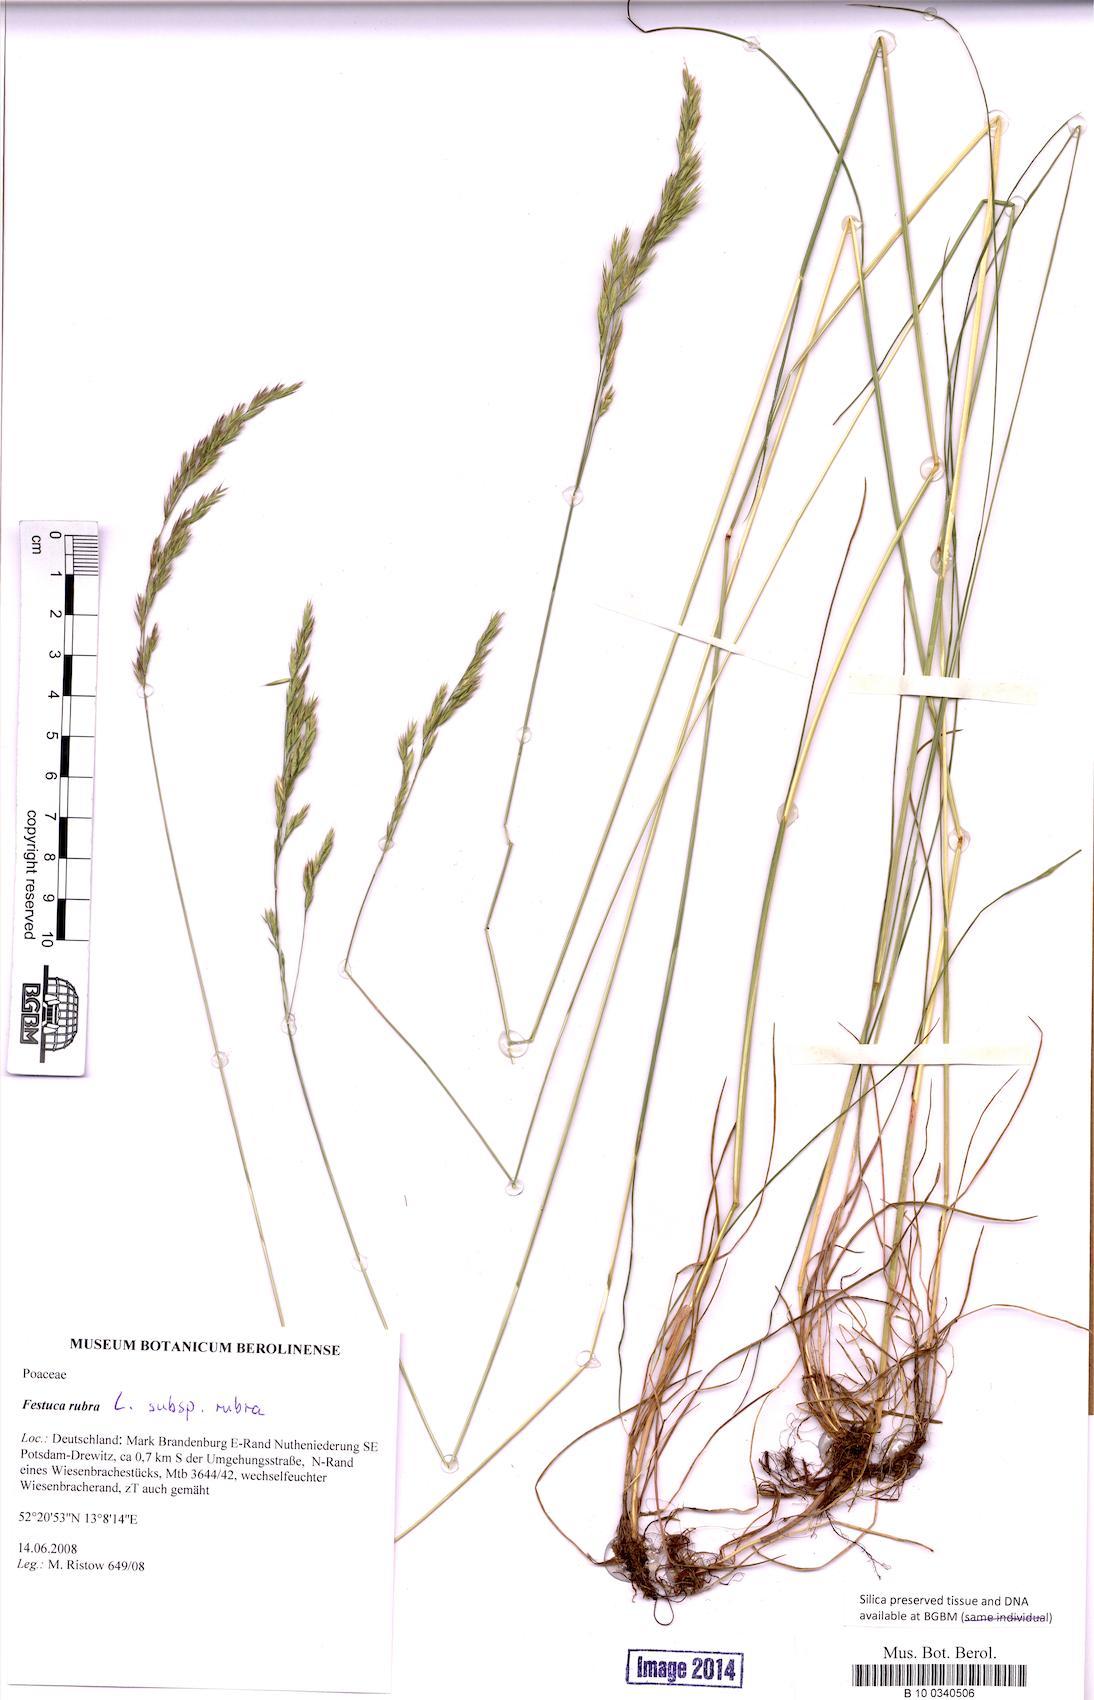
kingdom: Plantae
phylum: Tracheophyta
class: Liliopsida
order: Poales
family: Poaceae
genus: Festuca
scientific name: Festuca rubra
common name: Red fescue
